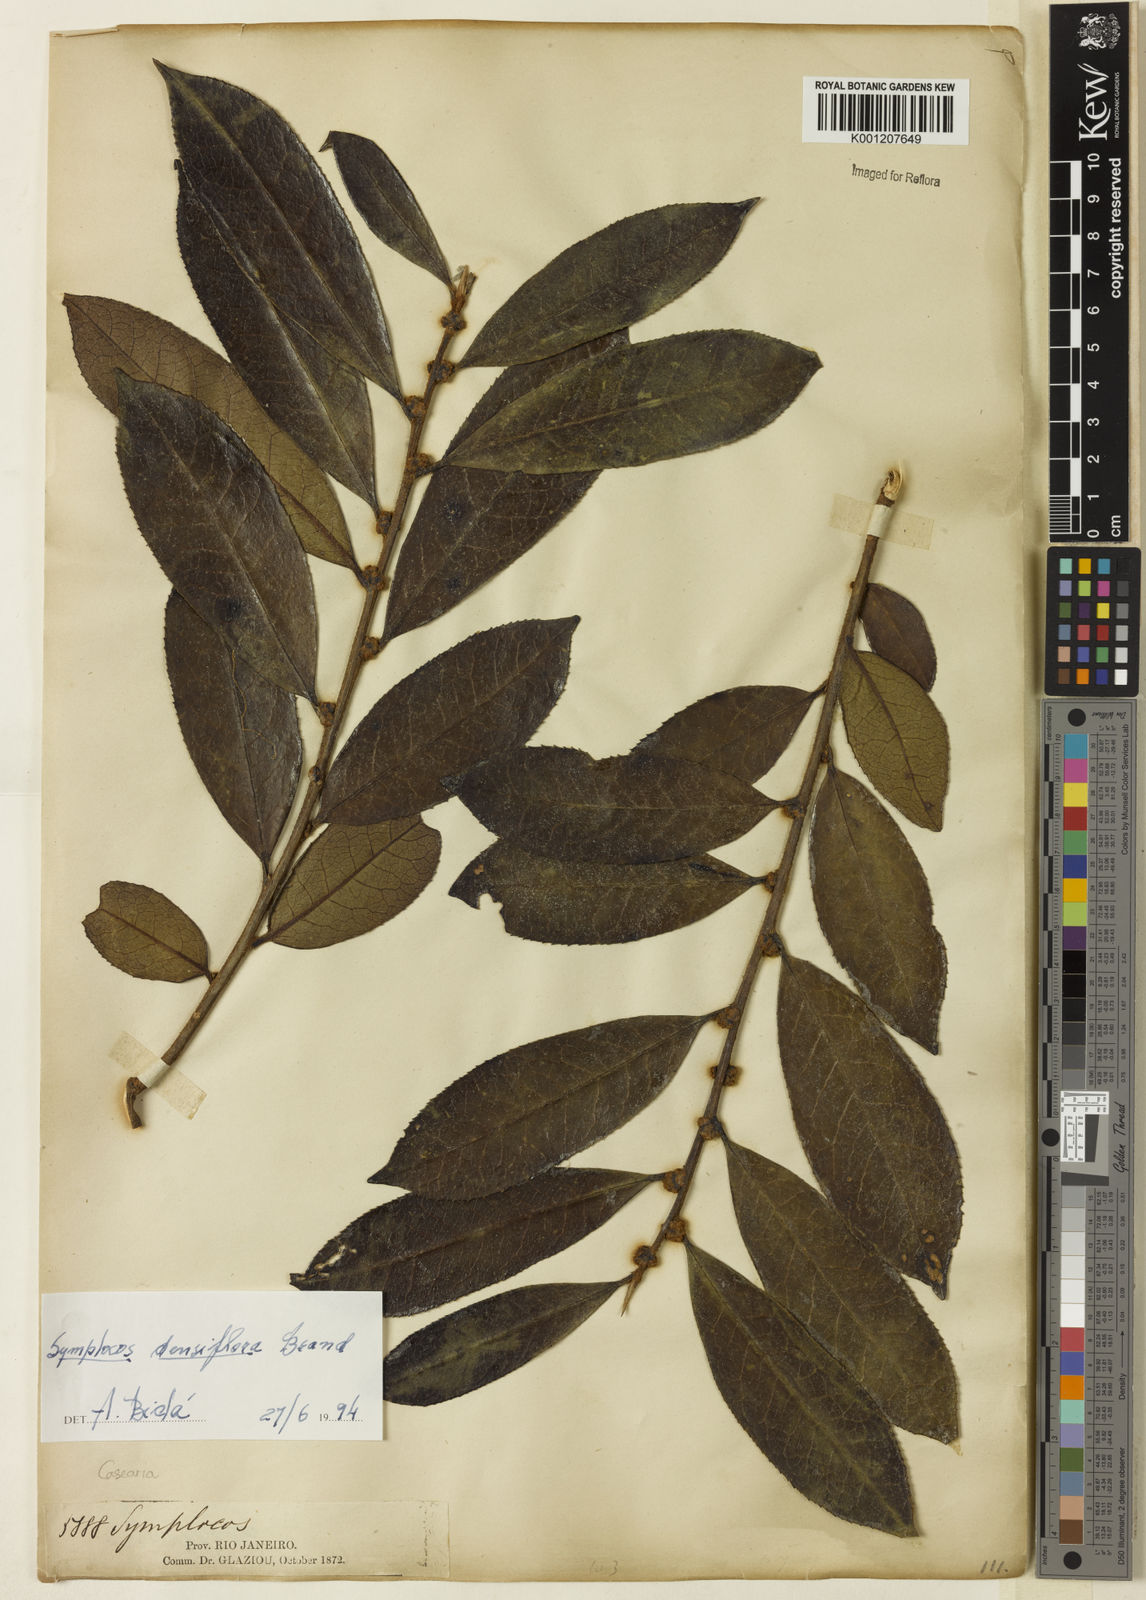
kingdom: Plantae
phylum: Tracheophyta
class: Magnoliopsida
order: Ericales
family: Symplocaceae
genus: Symplocos
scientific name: Symplocos falcata
